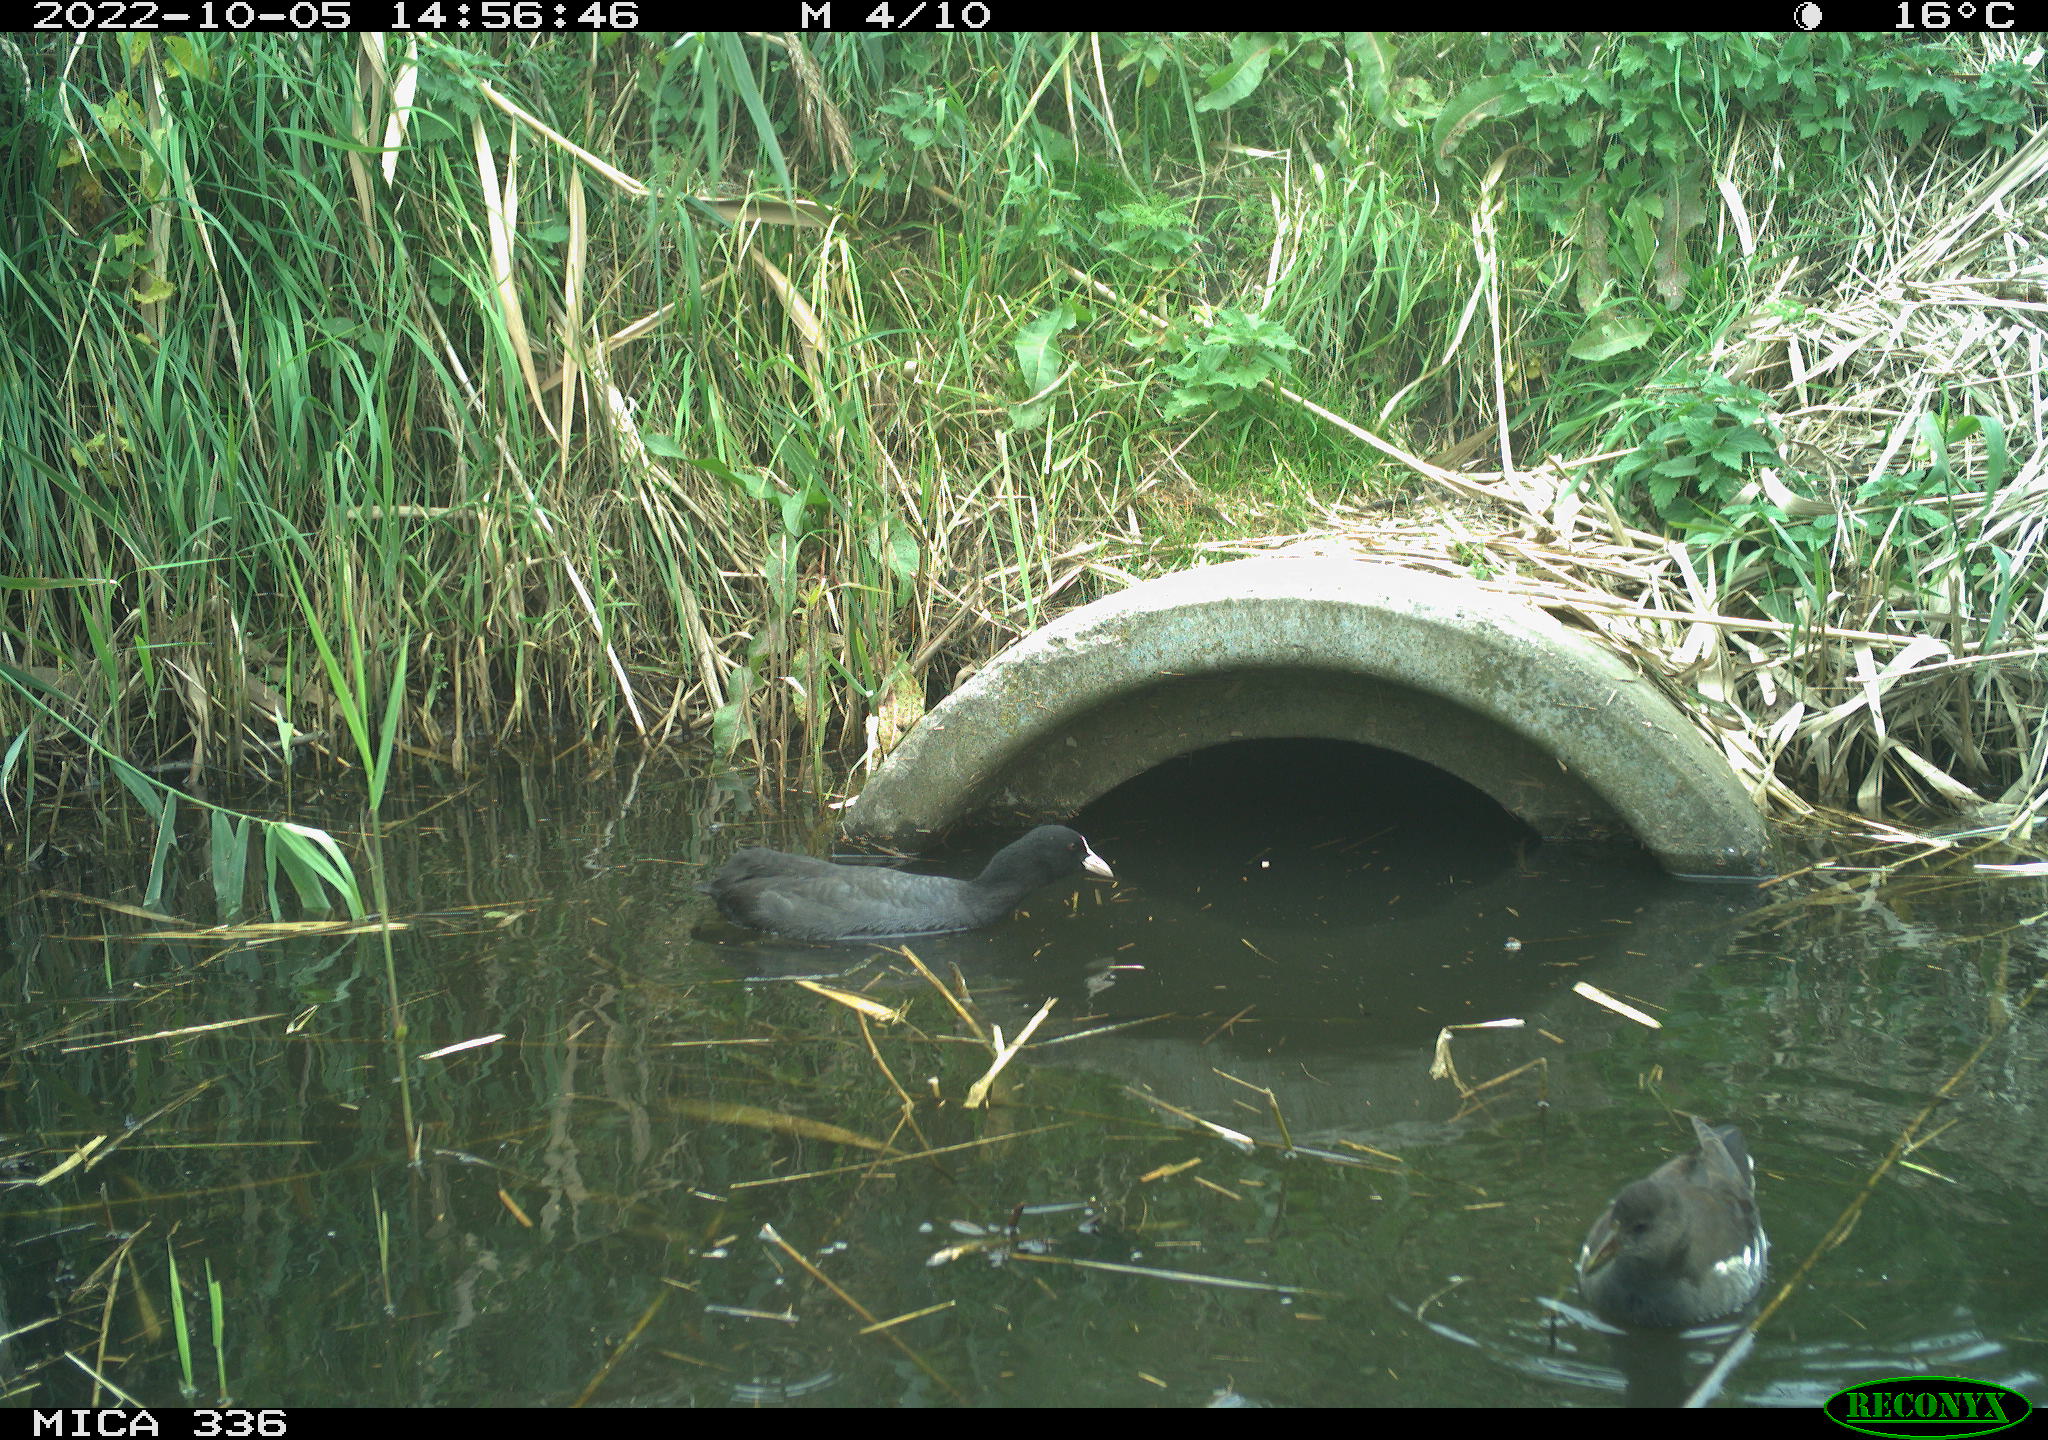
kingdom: Animalia
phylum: Chordata
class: Aves
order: Gruiformes
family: Rallidae
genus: Fulica
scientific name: Fulica atra
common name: Eurasian coot
